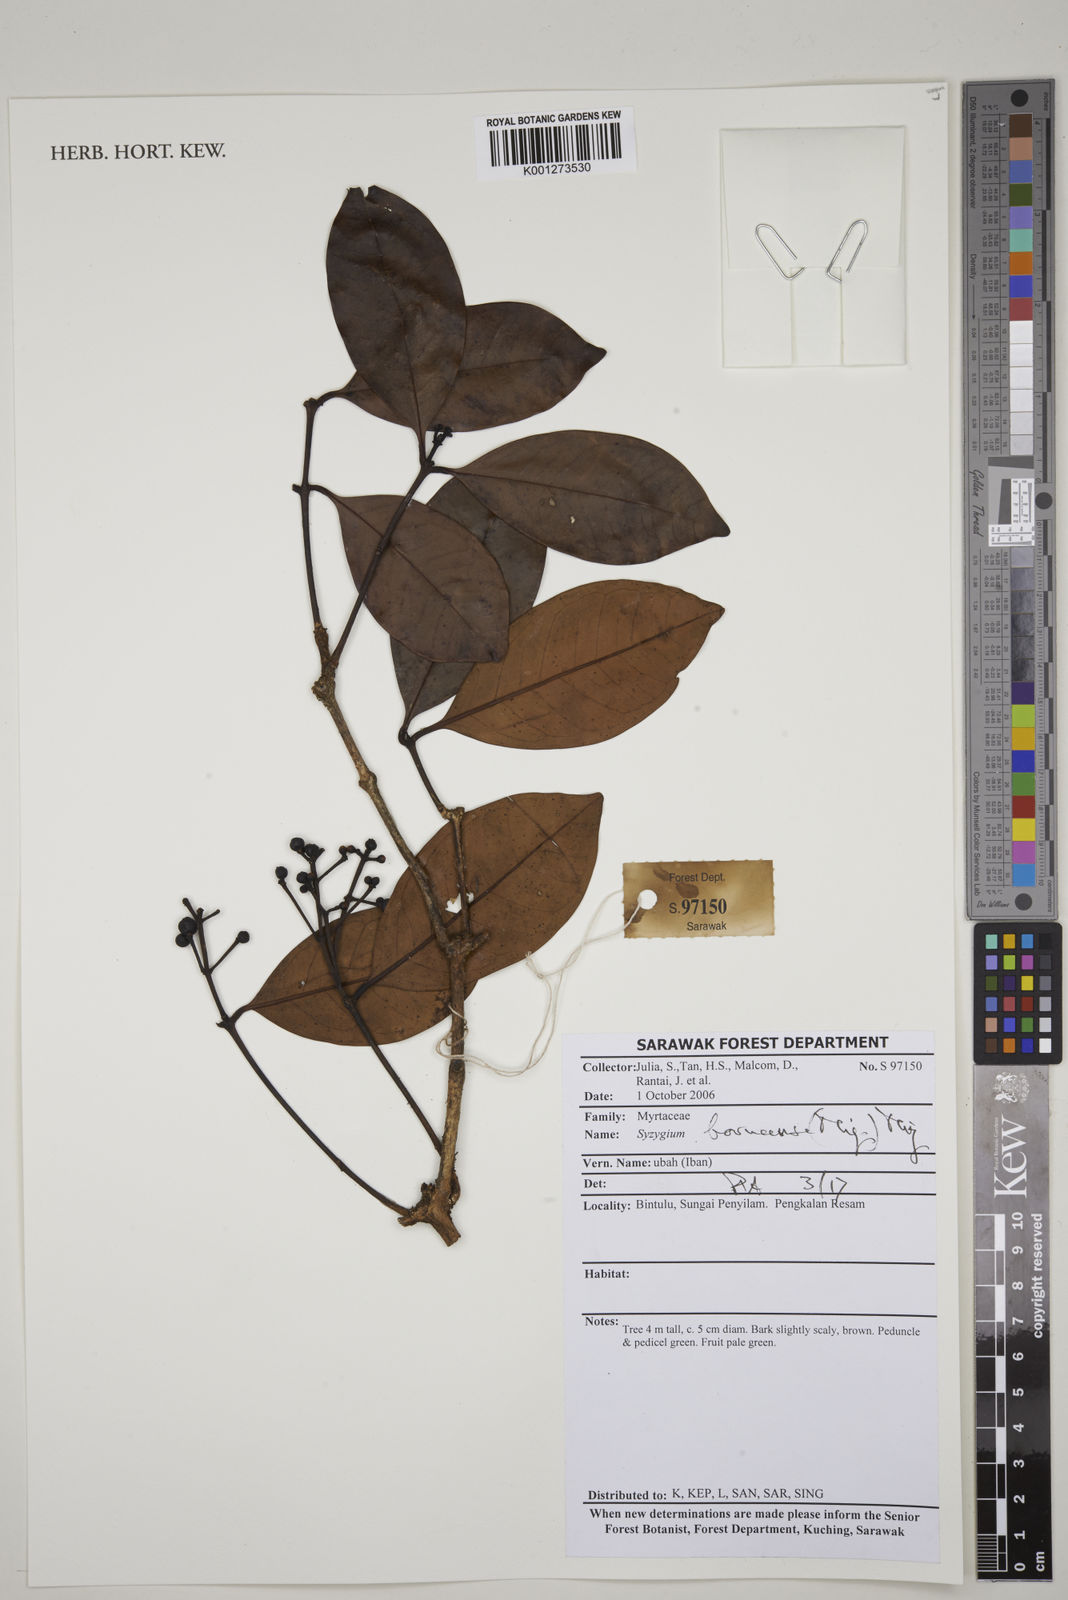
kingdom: Plantae
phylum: Tracheophyta
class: Magnoliopsida
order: Myrtales
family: Myrtaceae
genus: Syzygium
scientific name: Syzygium borneense
